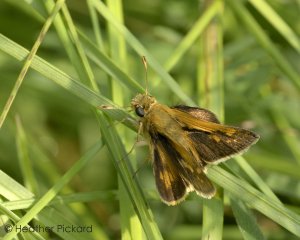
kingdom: Animalia
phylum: Arthropoda
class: Insecta
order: Lepidoptera
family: Hesperiidae
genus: Polites
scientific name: Polites coras
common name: Peck's Skipper
